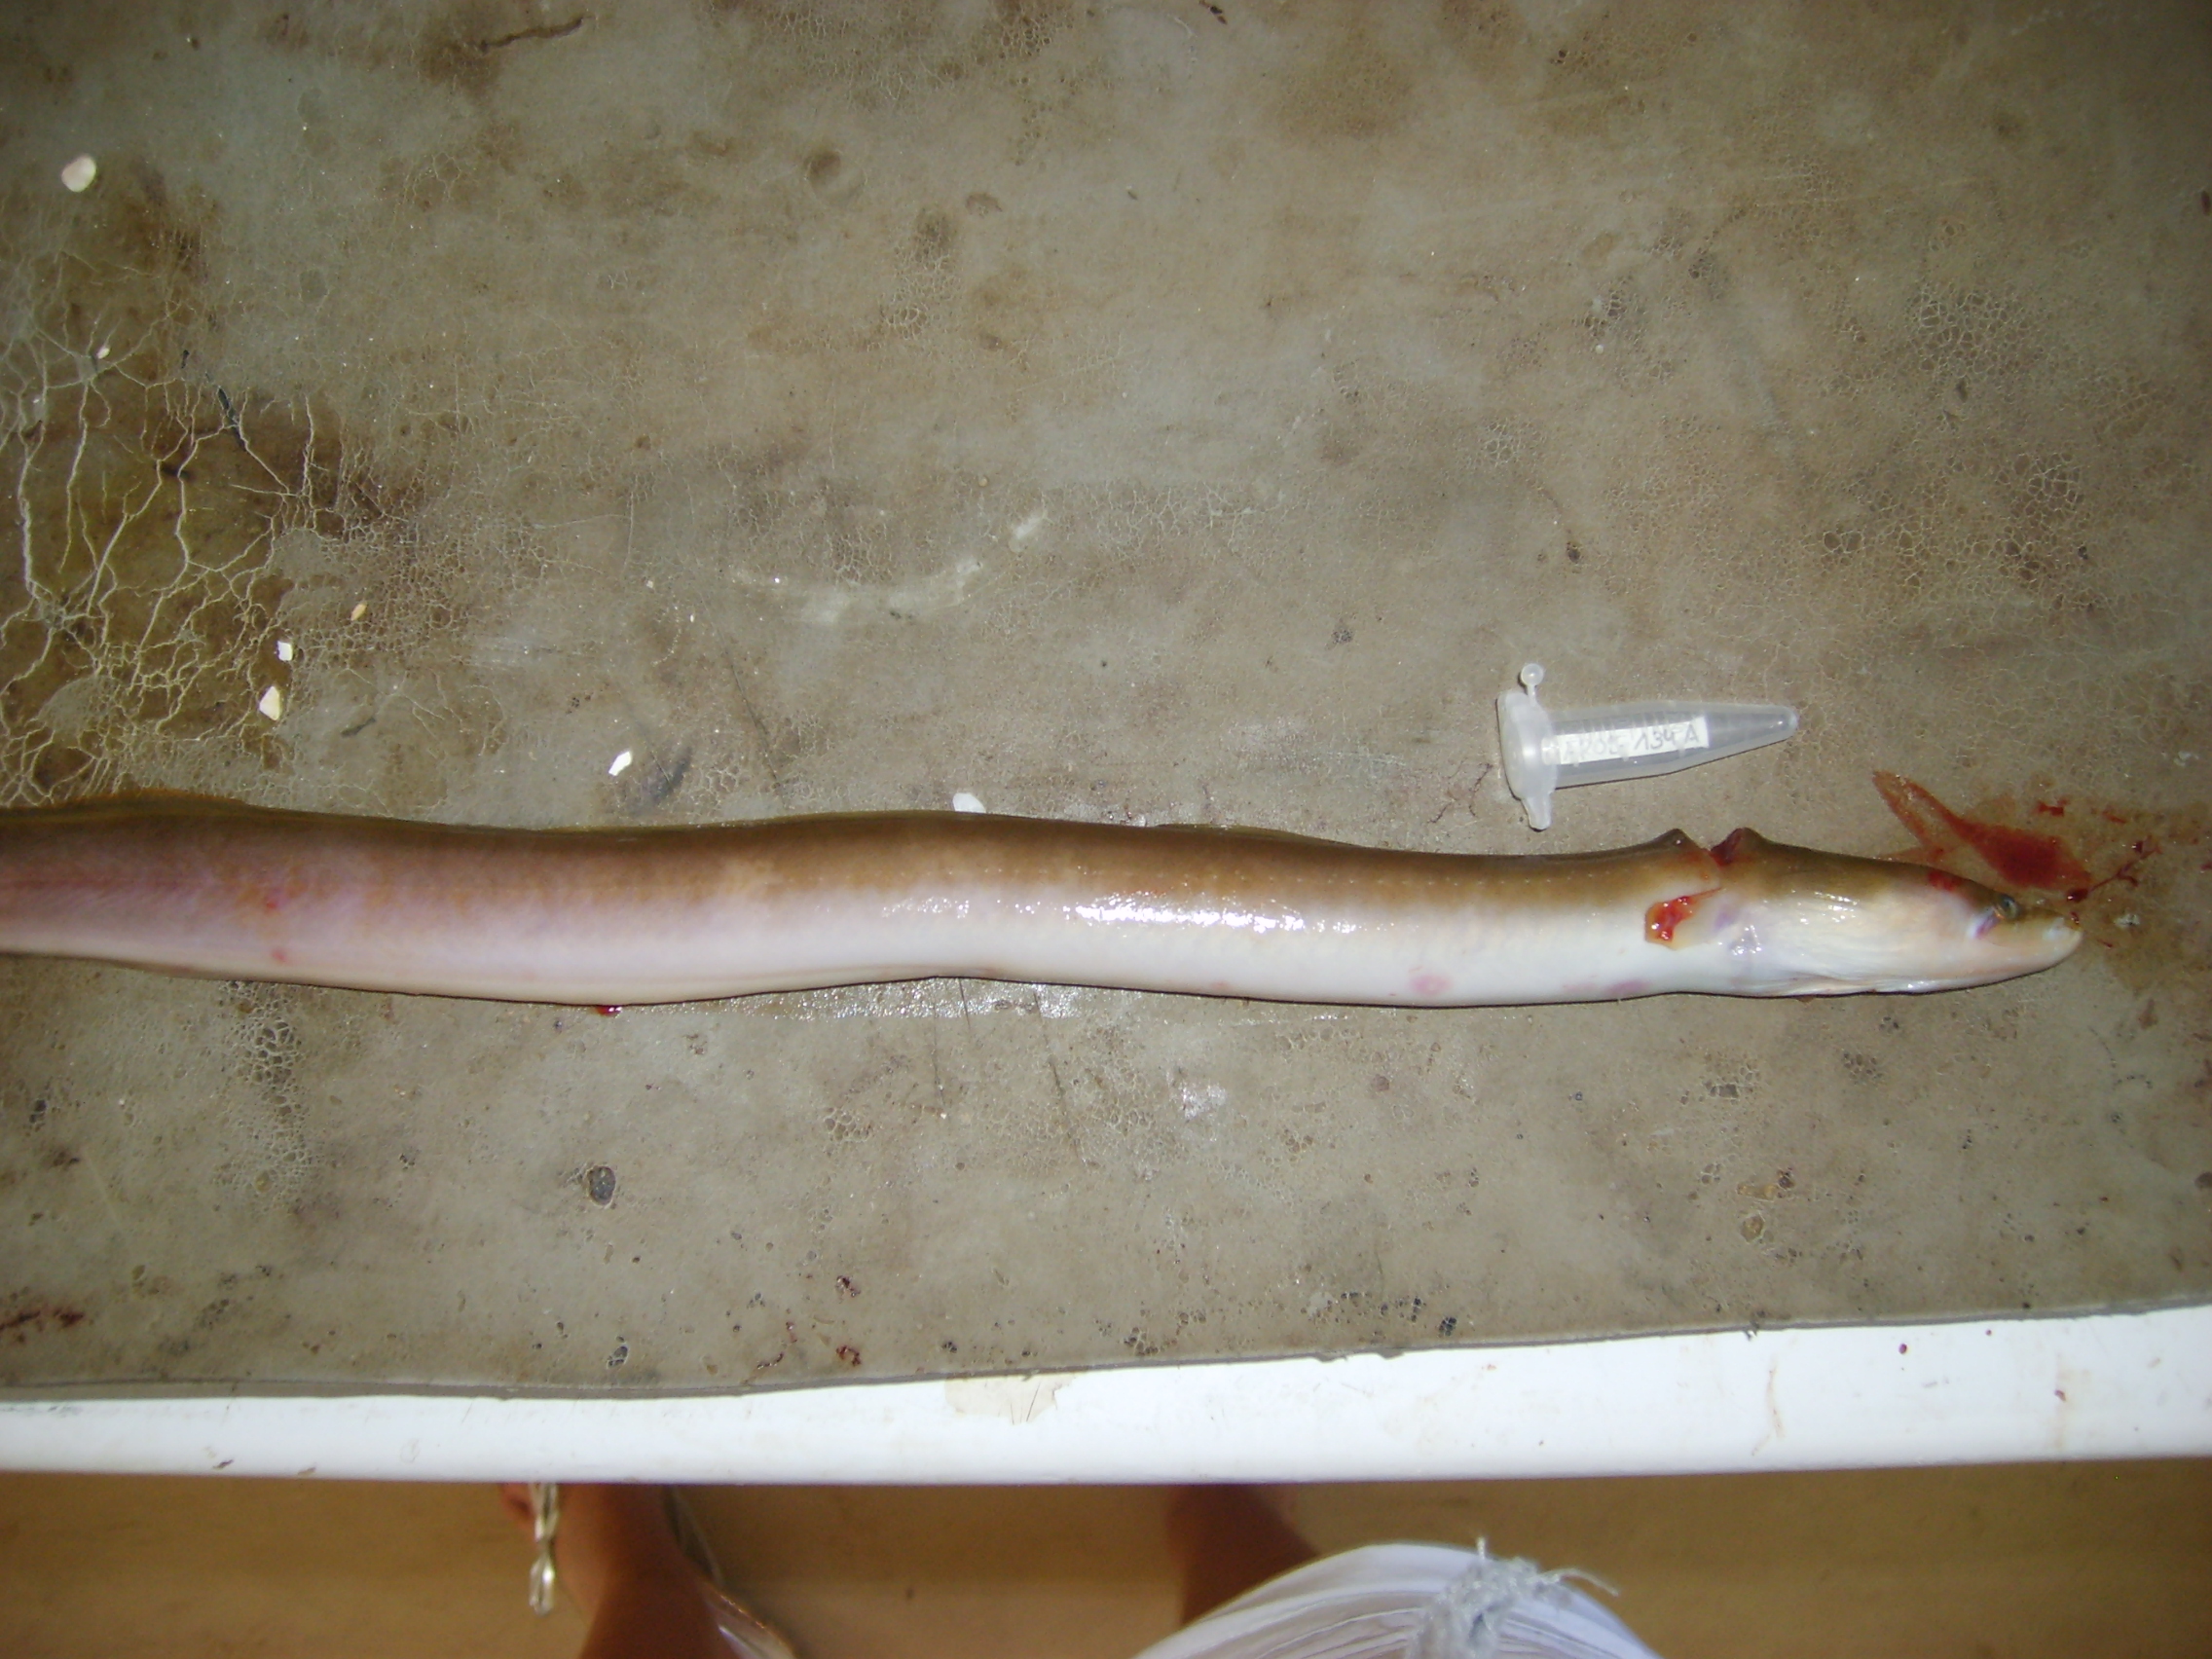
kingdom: Animalia
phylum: Chordata
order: Anguilliformes
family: Anguillidae
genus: Anguilla
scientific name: Anguilla mossambica
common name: African longfin eel
